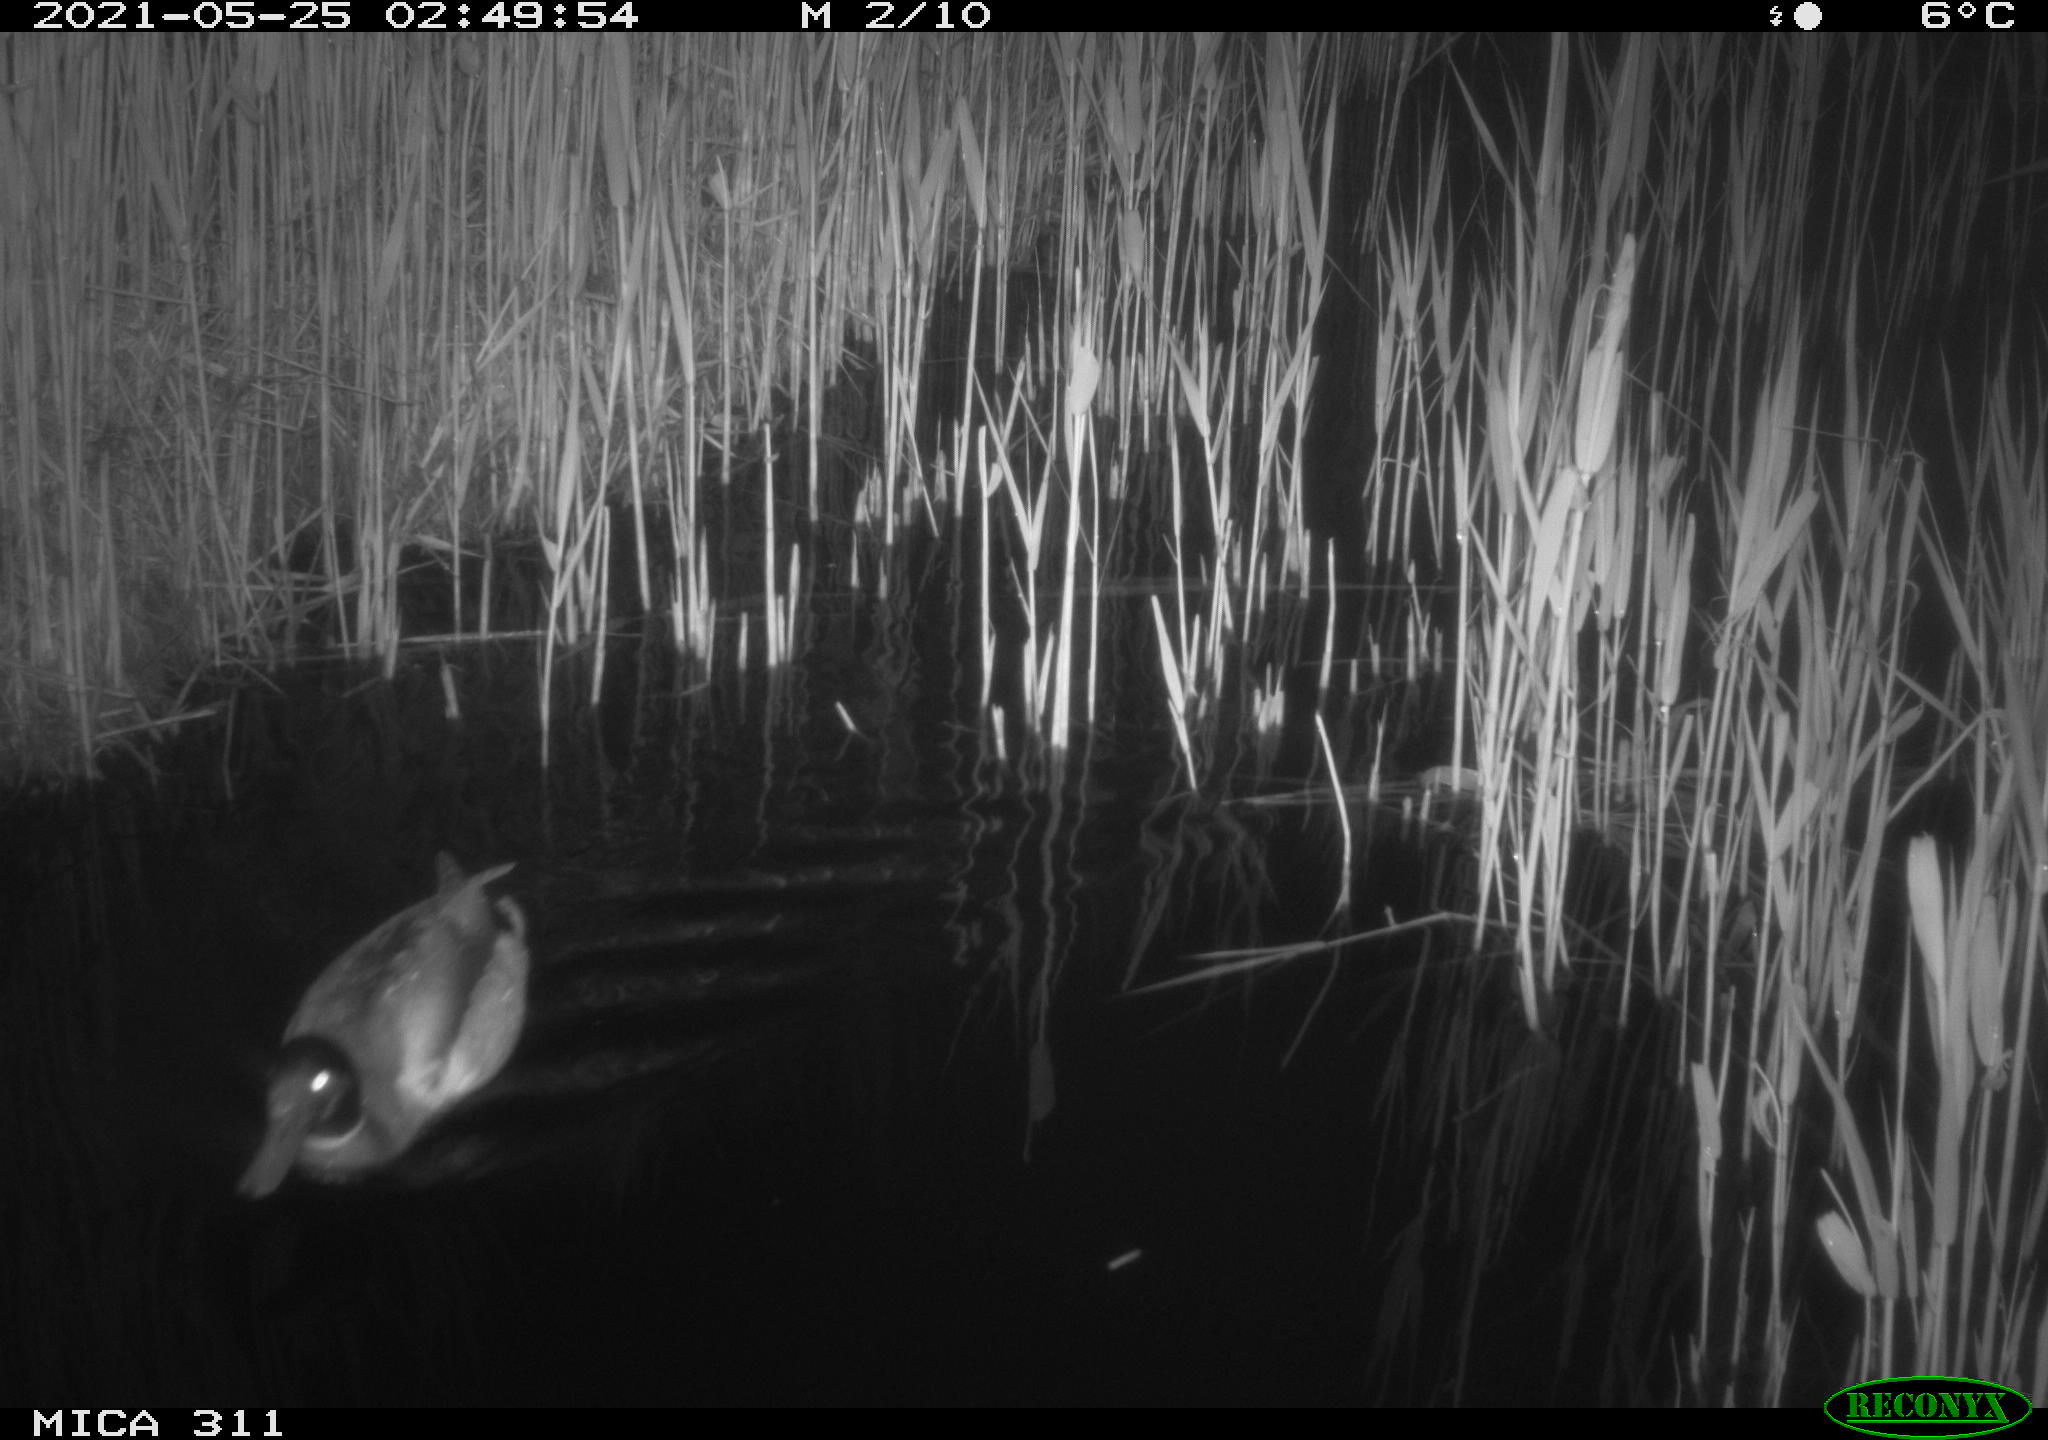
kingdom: Animalia
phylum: Chordata
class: Aves
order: Anseriformes
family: Anatidae
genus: Anas
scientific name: Anas platyrhynchos
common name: Mallard
